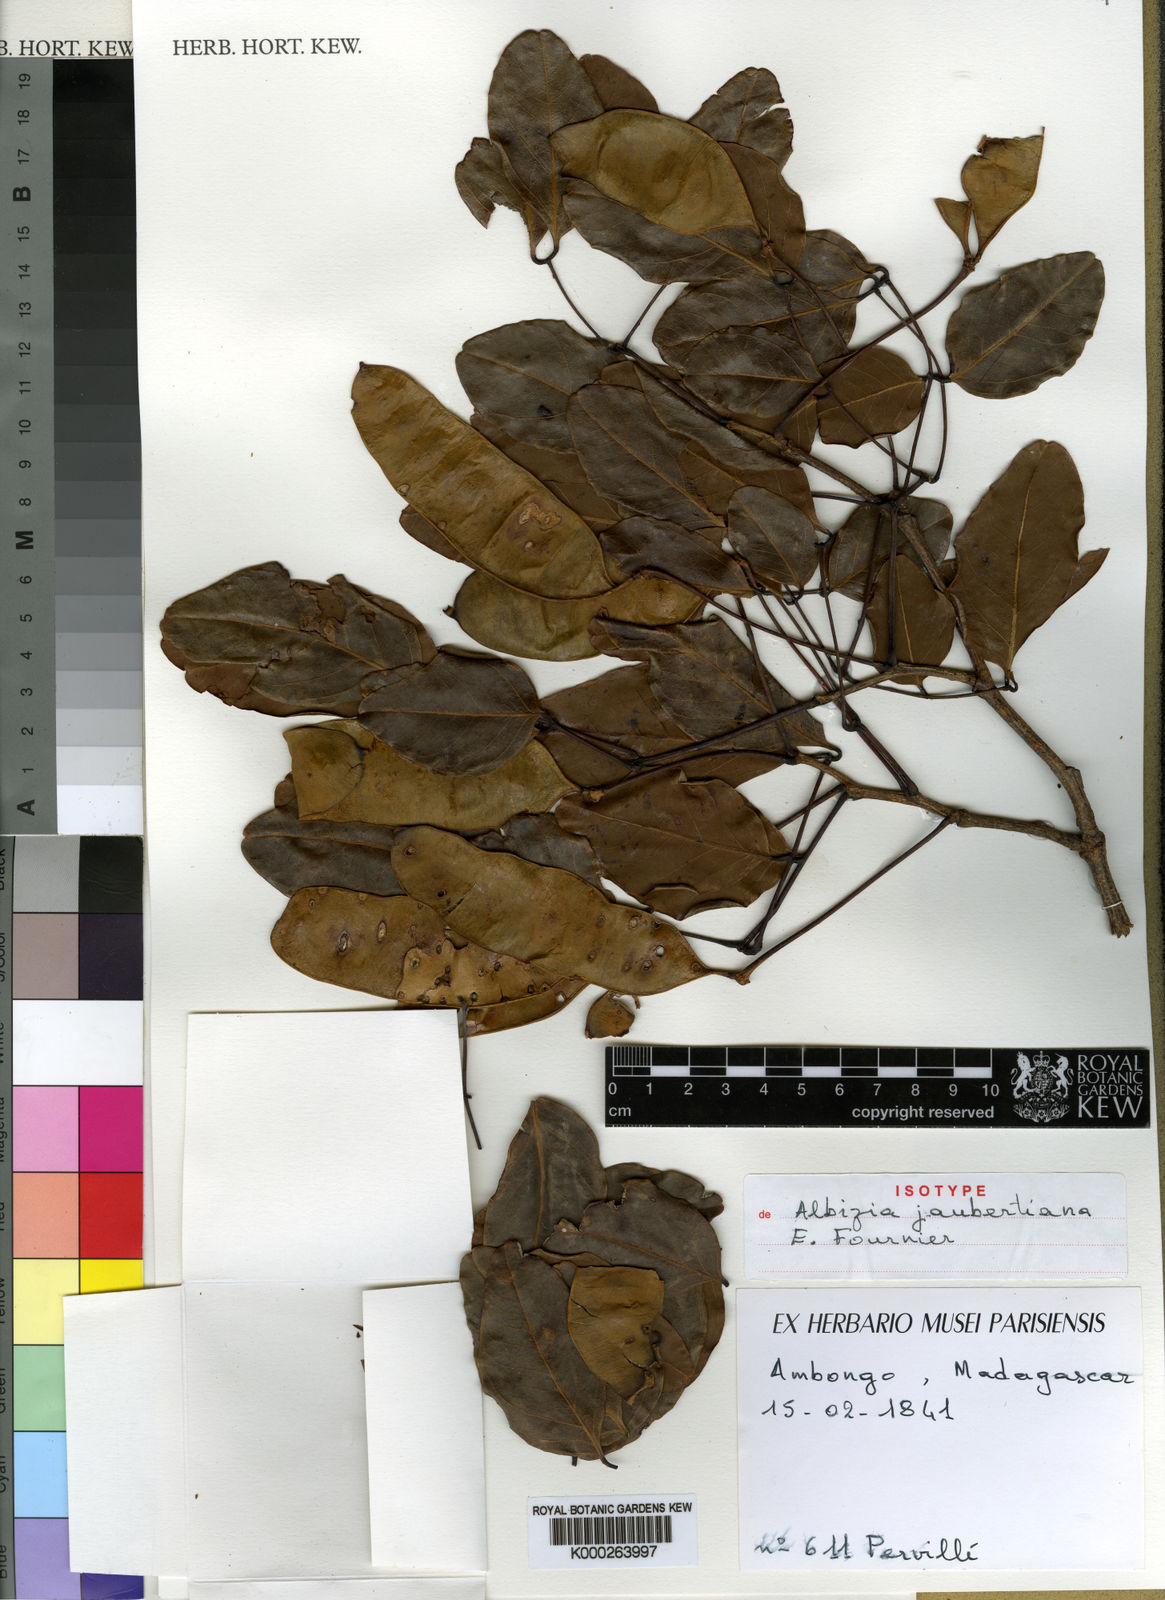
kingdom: Plantae
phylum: Tracheophyta
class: Magnoliopsida
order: Fabales
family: Fabaceae
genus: Albizia
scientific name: Albizia jaubertiana
